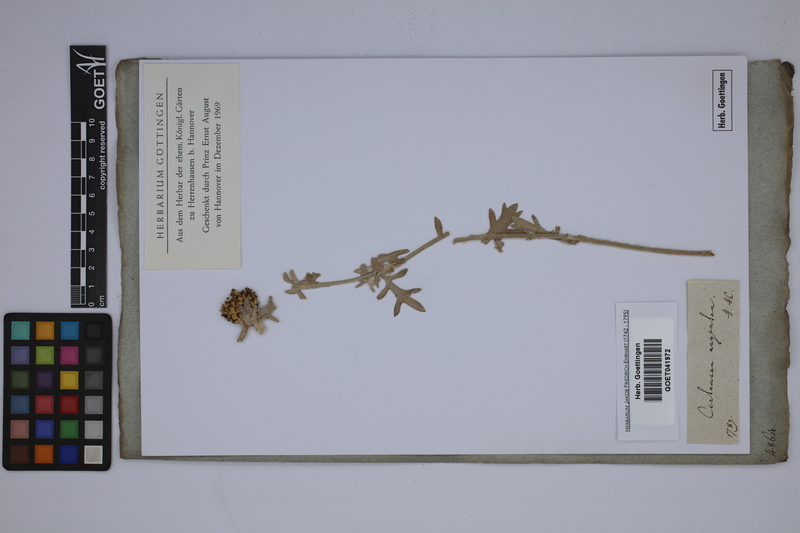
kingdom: Plantae
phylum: Tracheophyta
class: Magnoliopsida
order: Asterales
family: Asteraceae
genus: Centaurea
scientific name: Centaurea argentea
